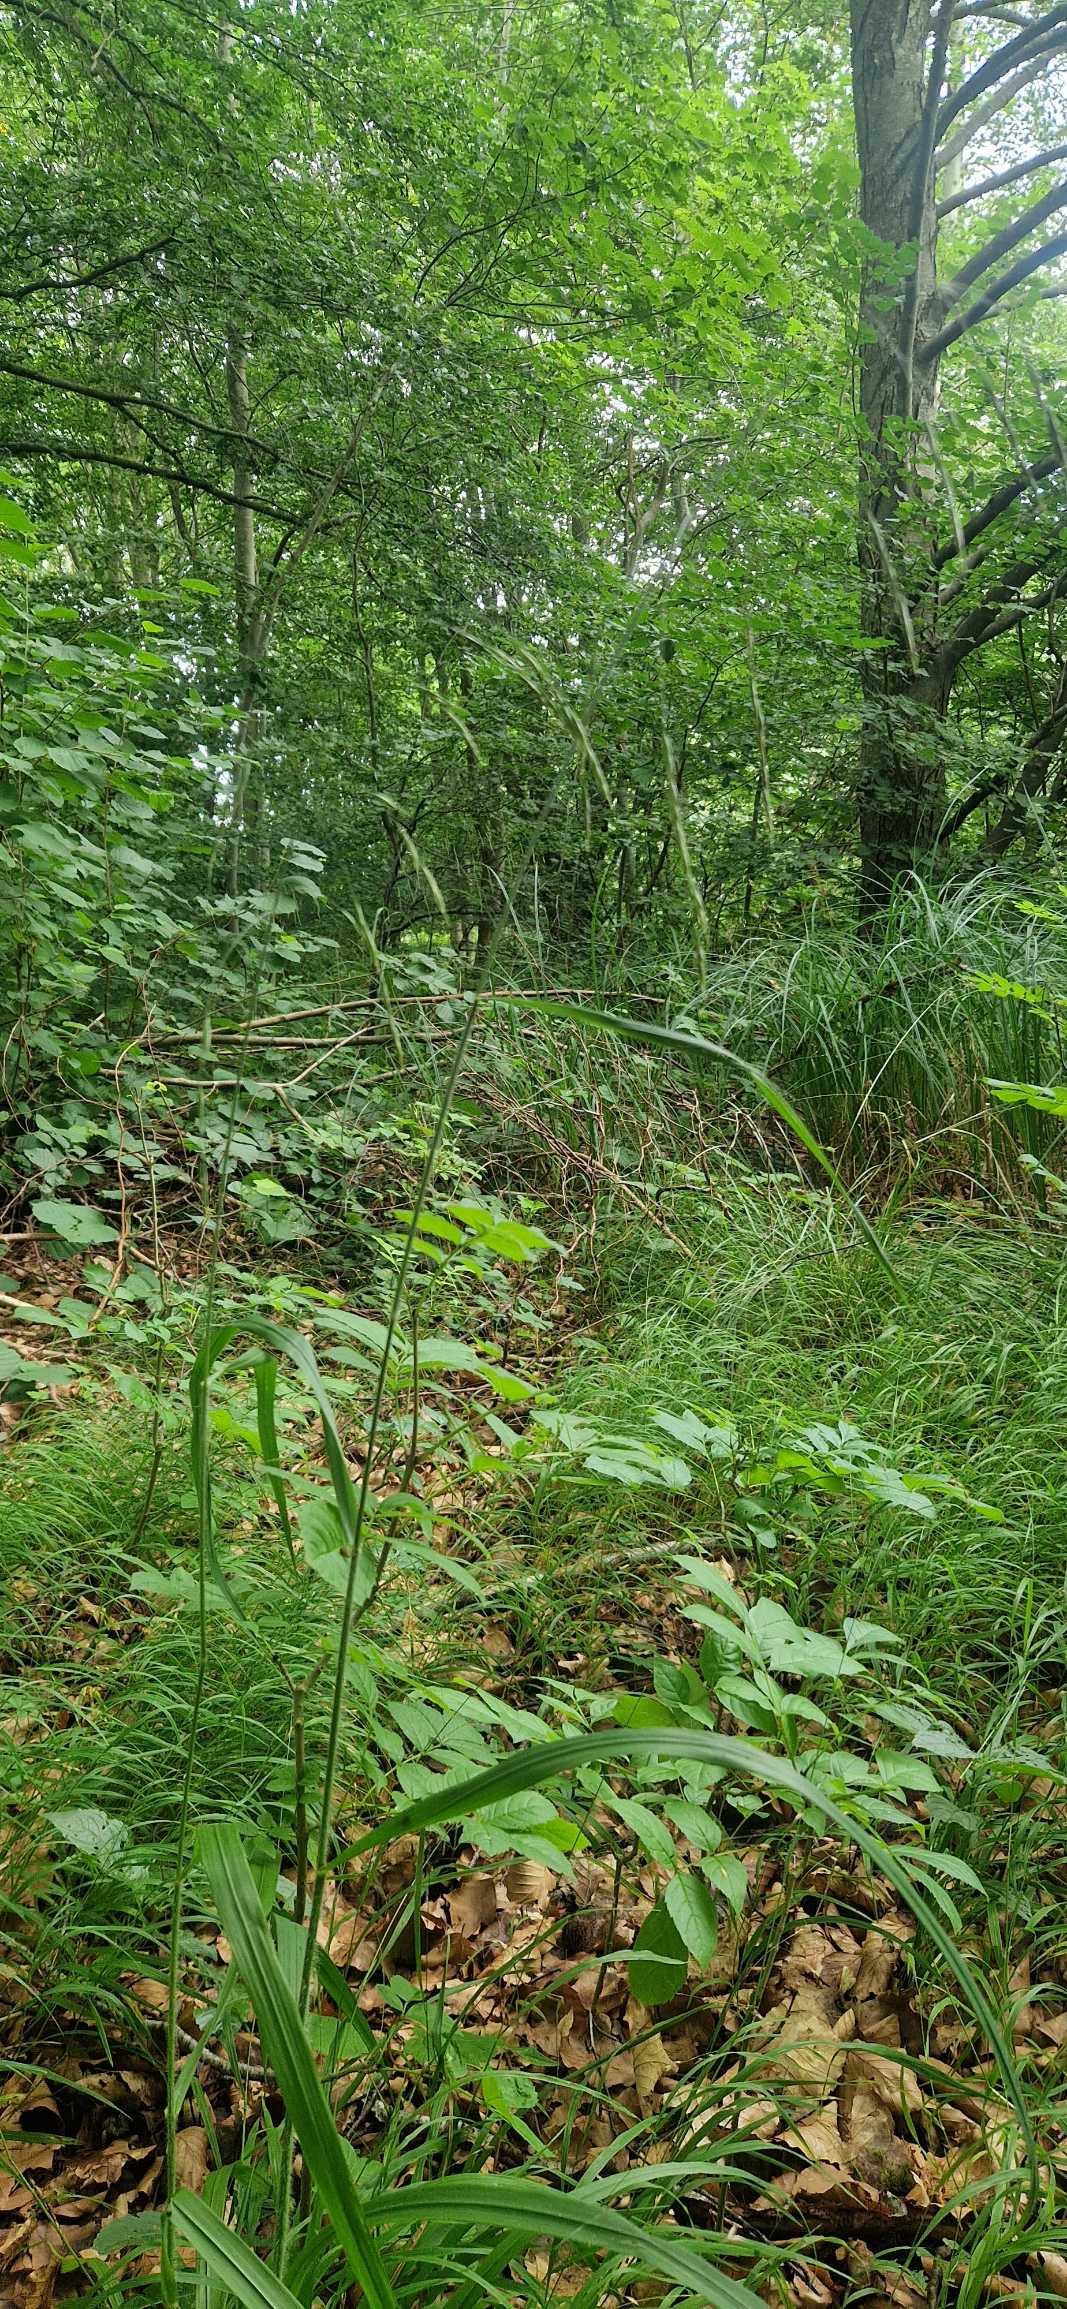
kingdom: Plantae
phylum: Tracheophyta
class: Liliopsida
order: Poales
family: Poaceae
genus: Bromus
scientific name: Bromus ramosus
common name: Sildig skov-hejre
